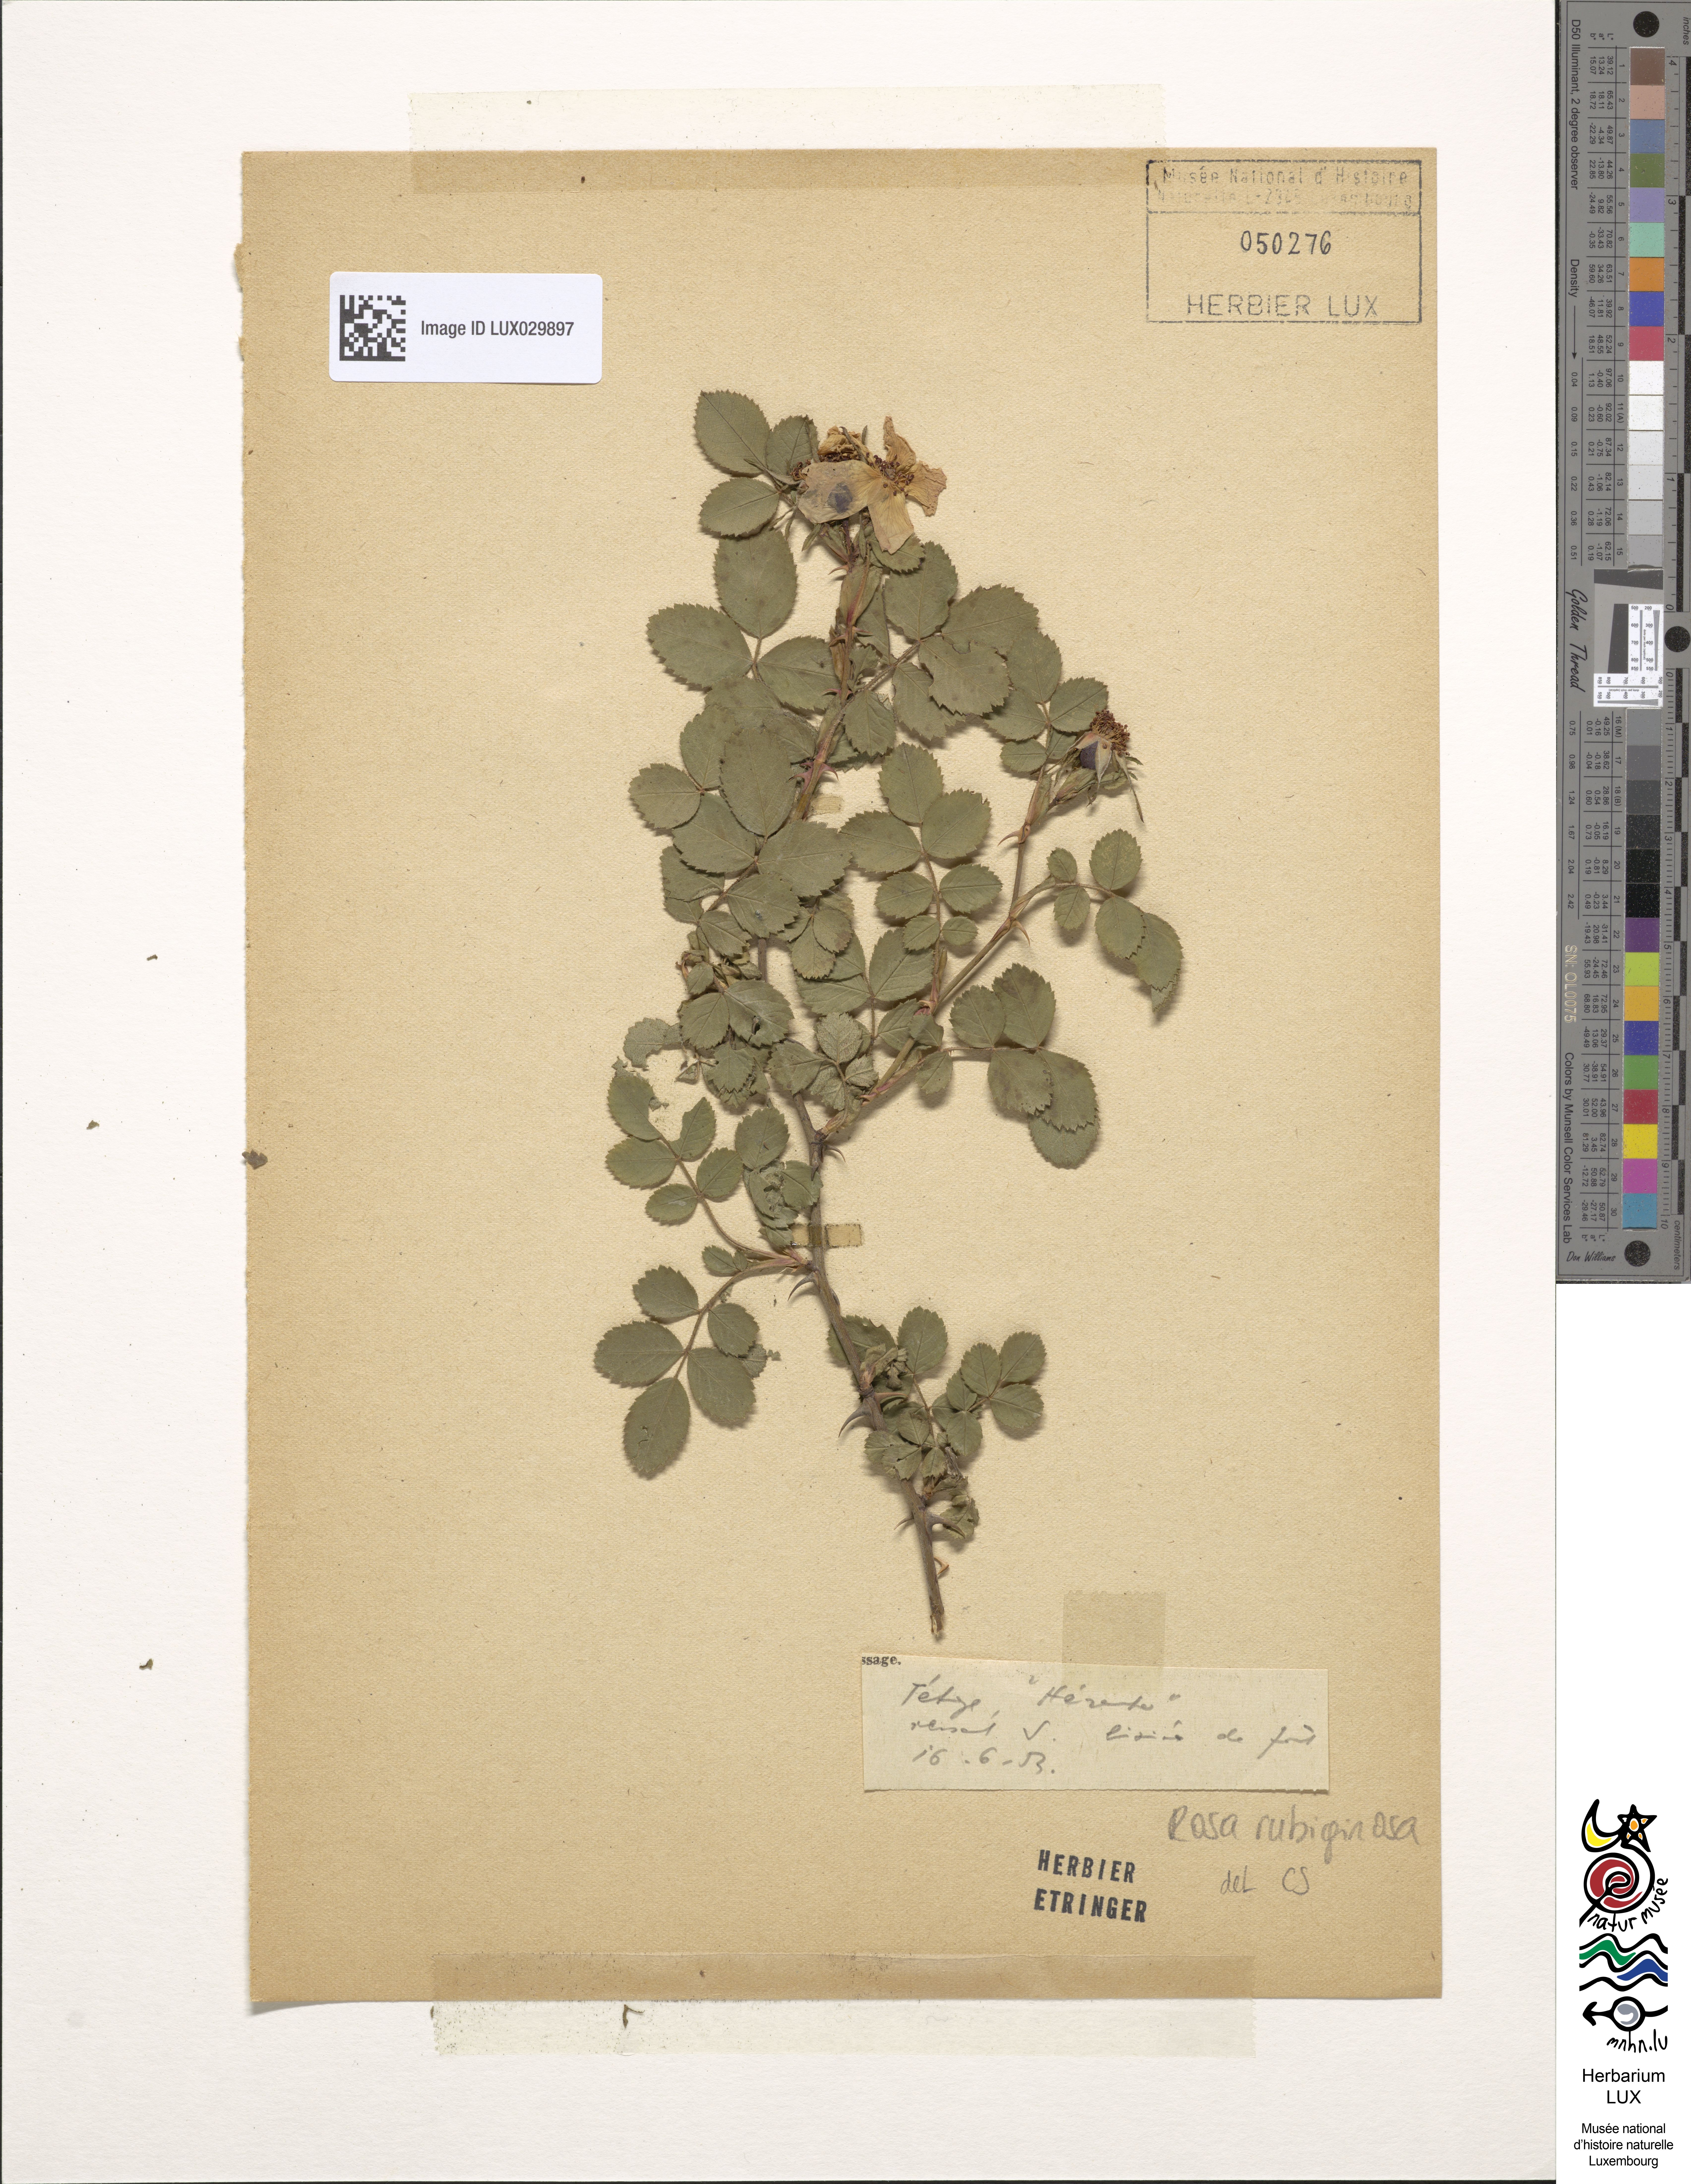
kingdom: Plantae
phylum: Tracheophyta
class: Magnoliopsida
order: Rosales
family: Rosaceae
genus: Rosa
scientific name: Rosa rubiginosa
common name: Sweet-briar
